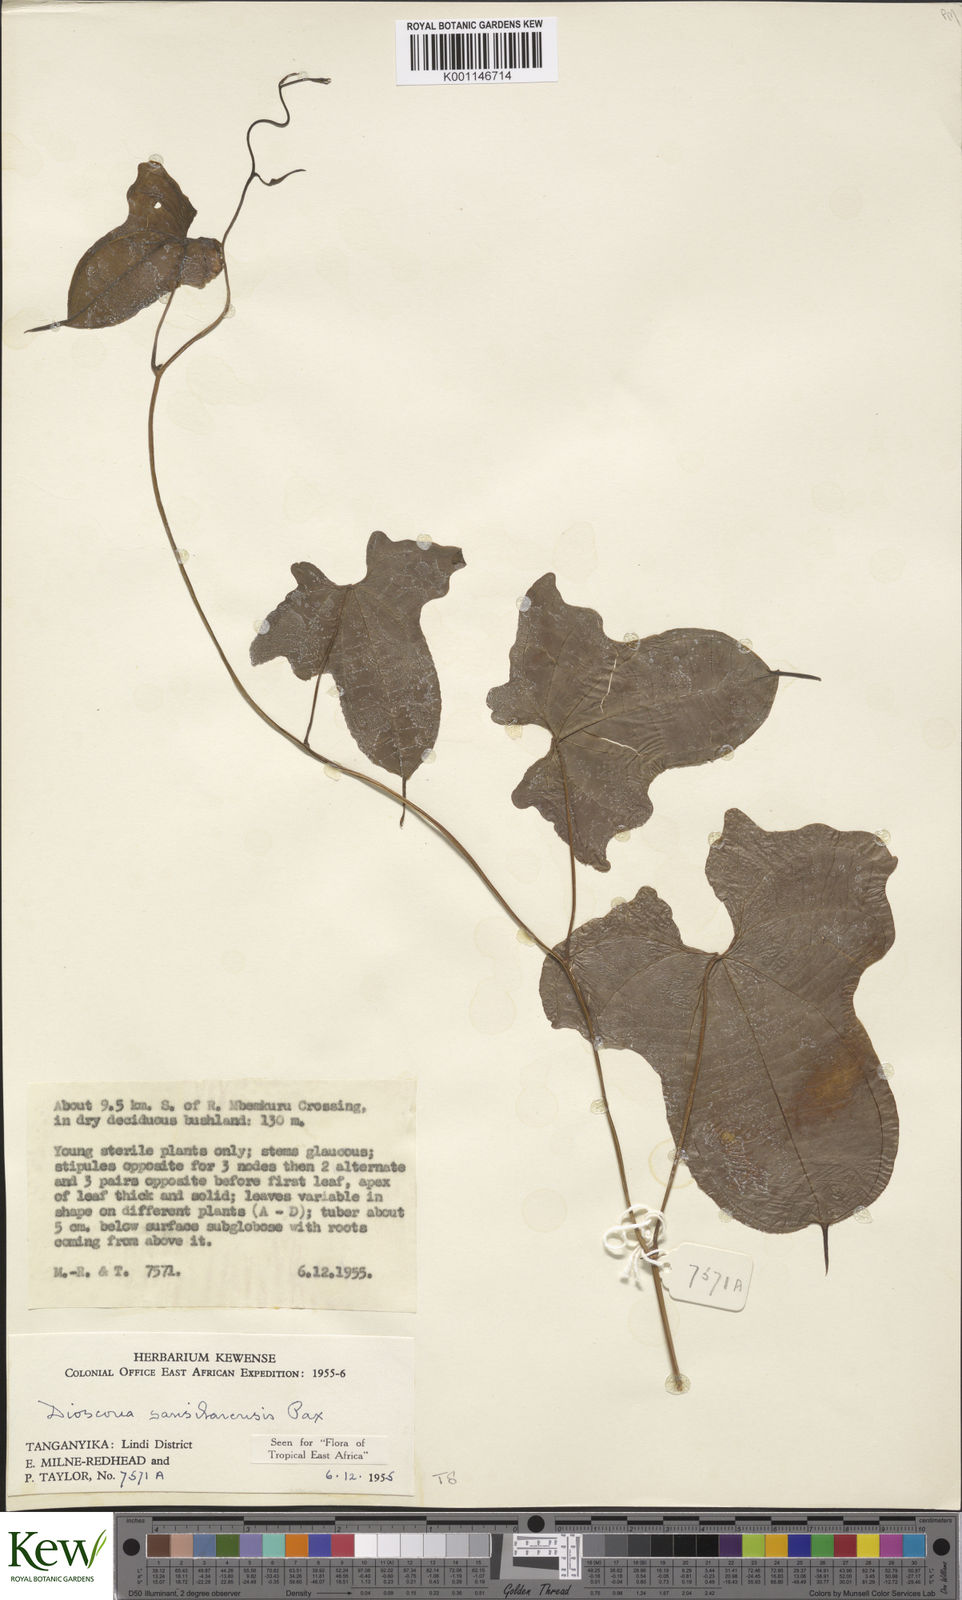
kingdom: Plantae
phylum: Tracheophyta
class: Liliopsida
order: Dioscoreales
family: Dioscoreaceae
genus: Dioscorea
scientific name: Dioscorea sansibarensis
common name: Zanzibar yam
